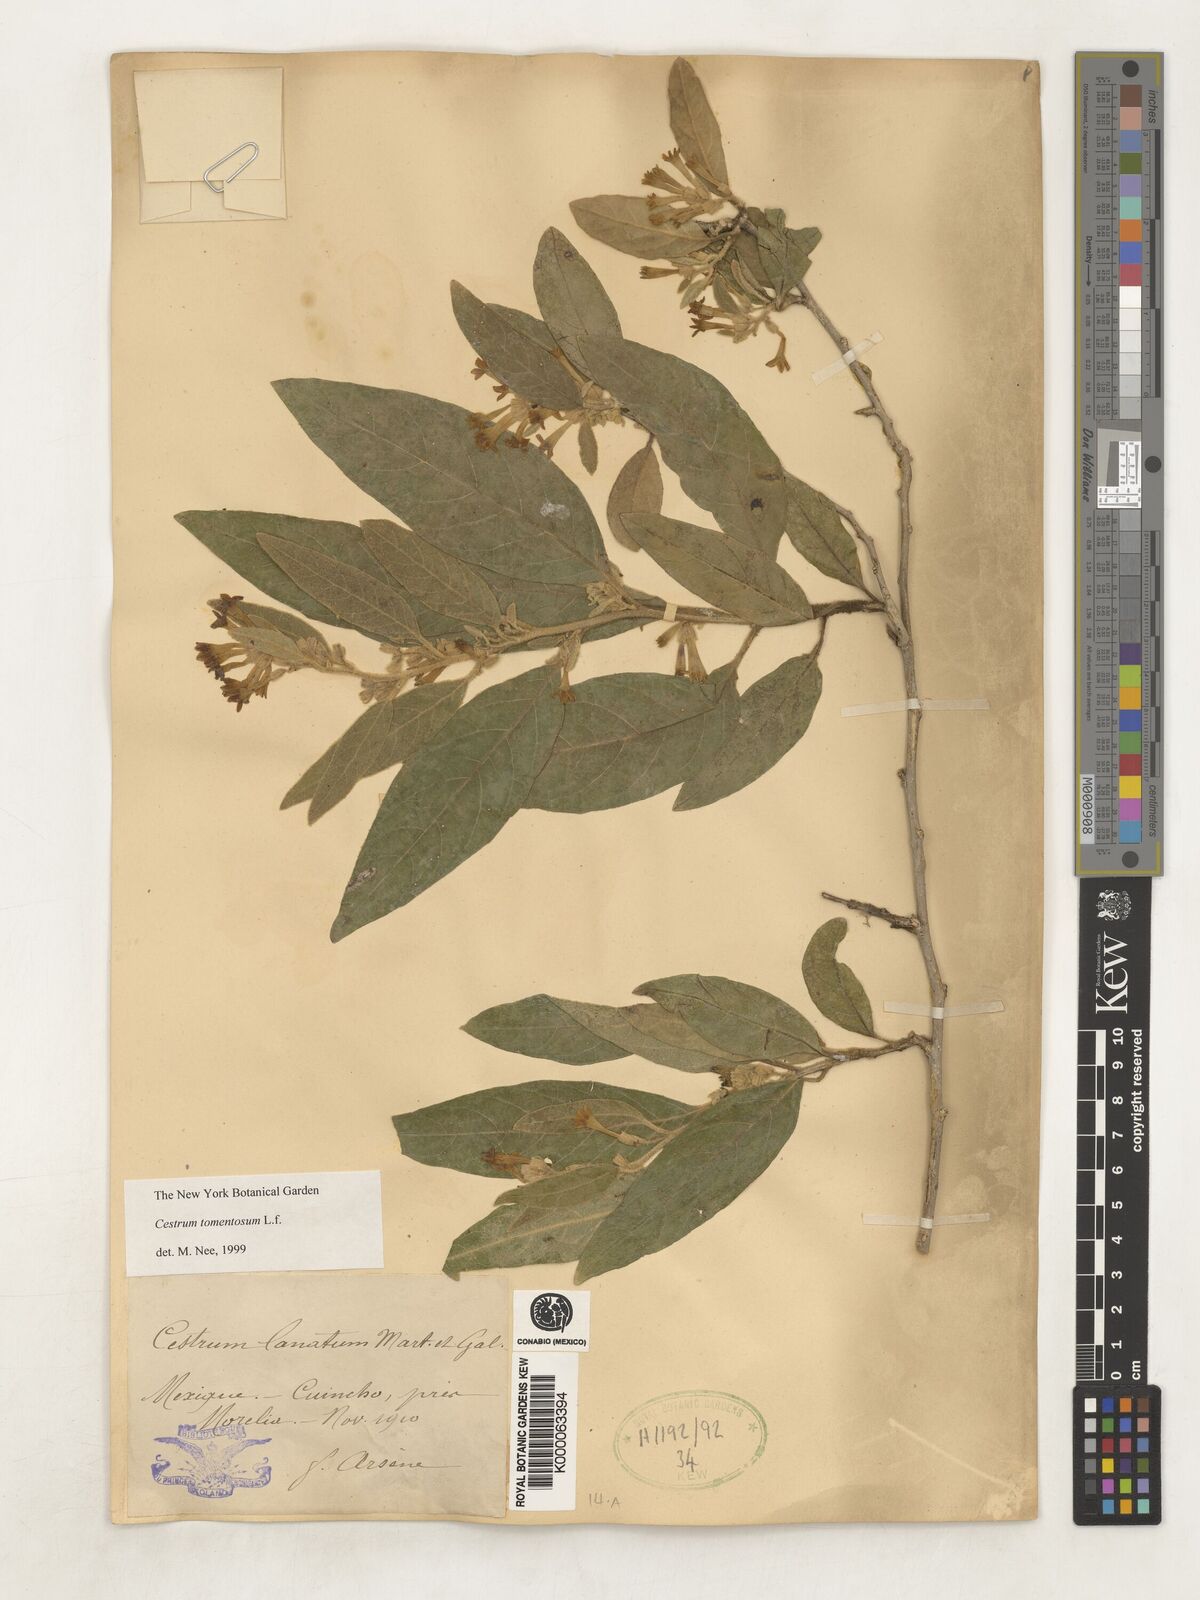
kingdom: Plantae
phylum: Tracheophyta
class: Magnoliopsida
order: Solanales
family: Solanaceae
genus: Cestrum
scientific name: Cestrum tomentosum
